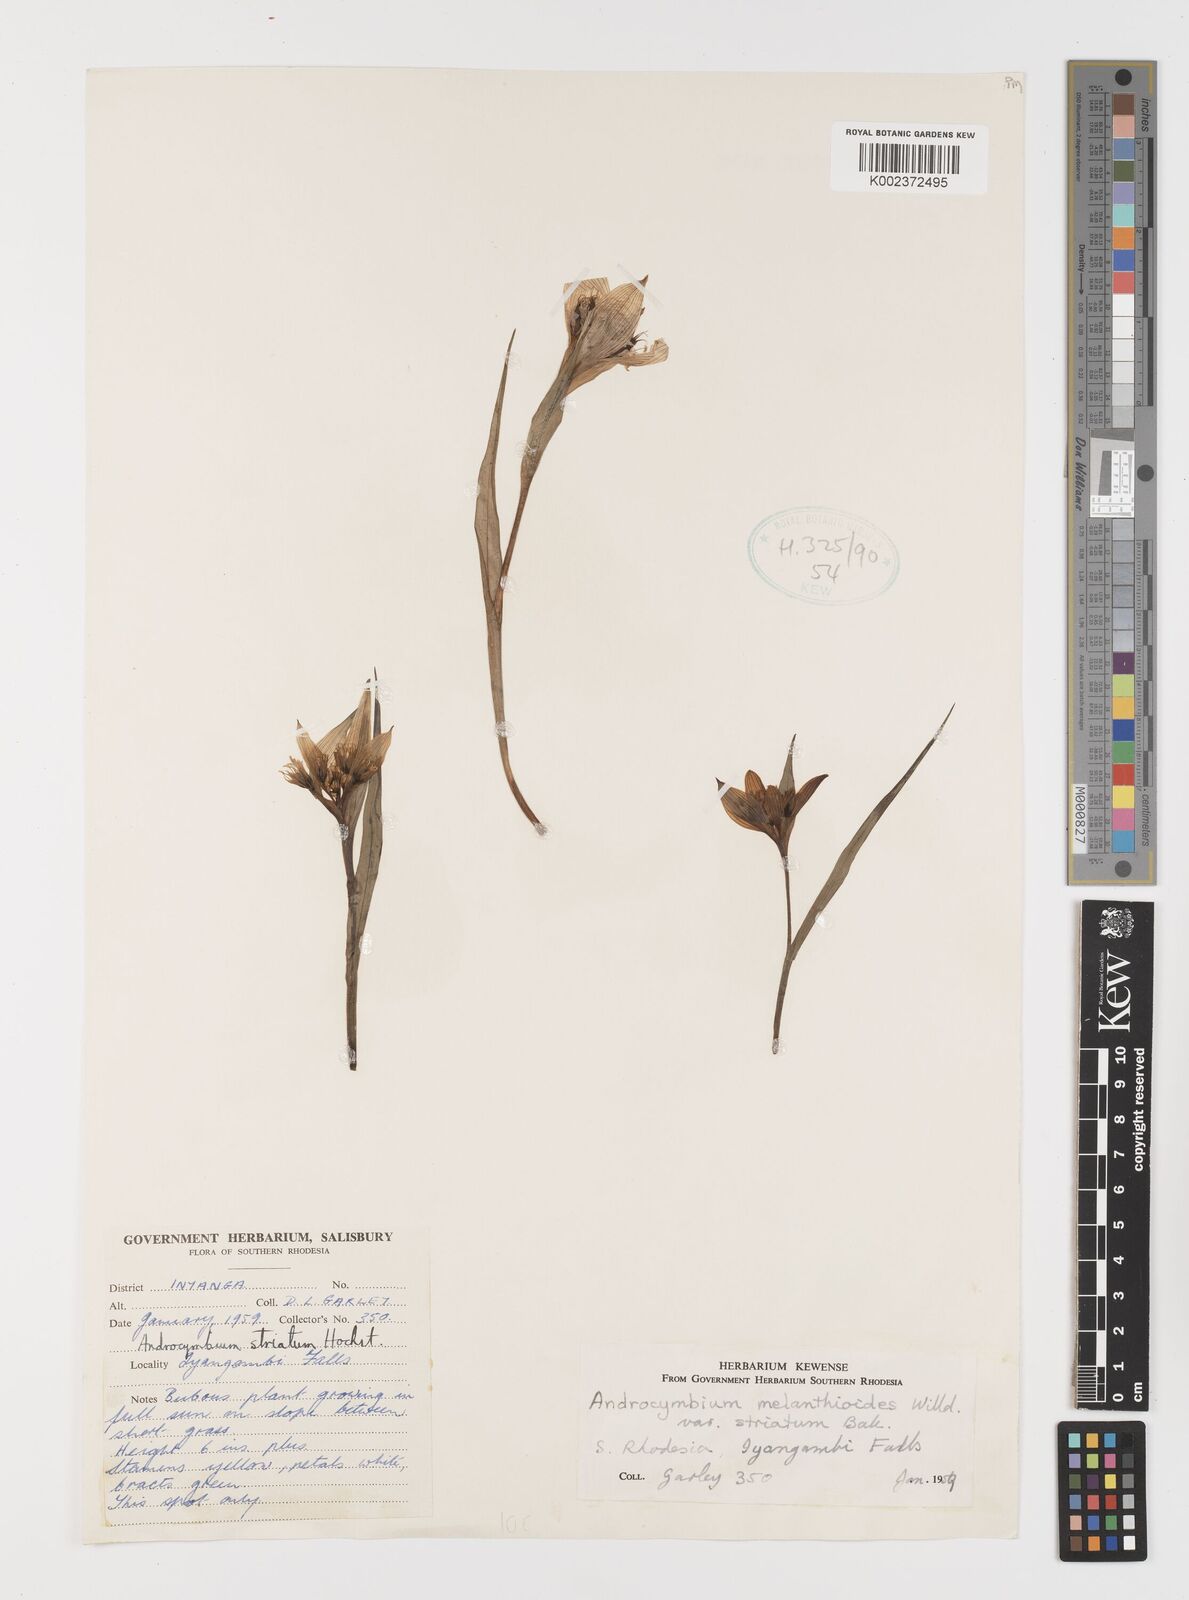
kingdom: Plantae
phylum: Tracheophyta
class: Liliopsida
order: Liliales
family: Colchicaceae
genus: Colchicum
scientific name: Colchicum striatum
